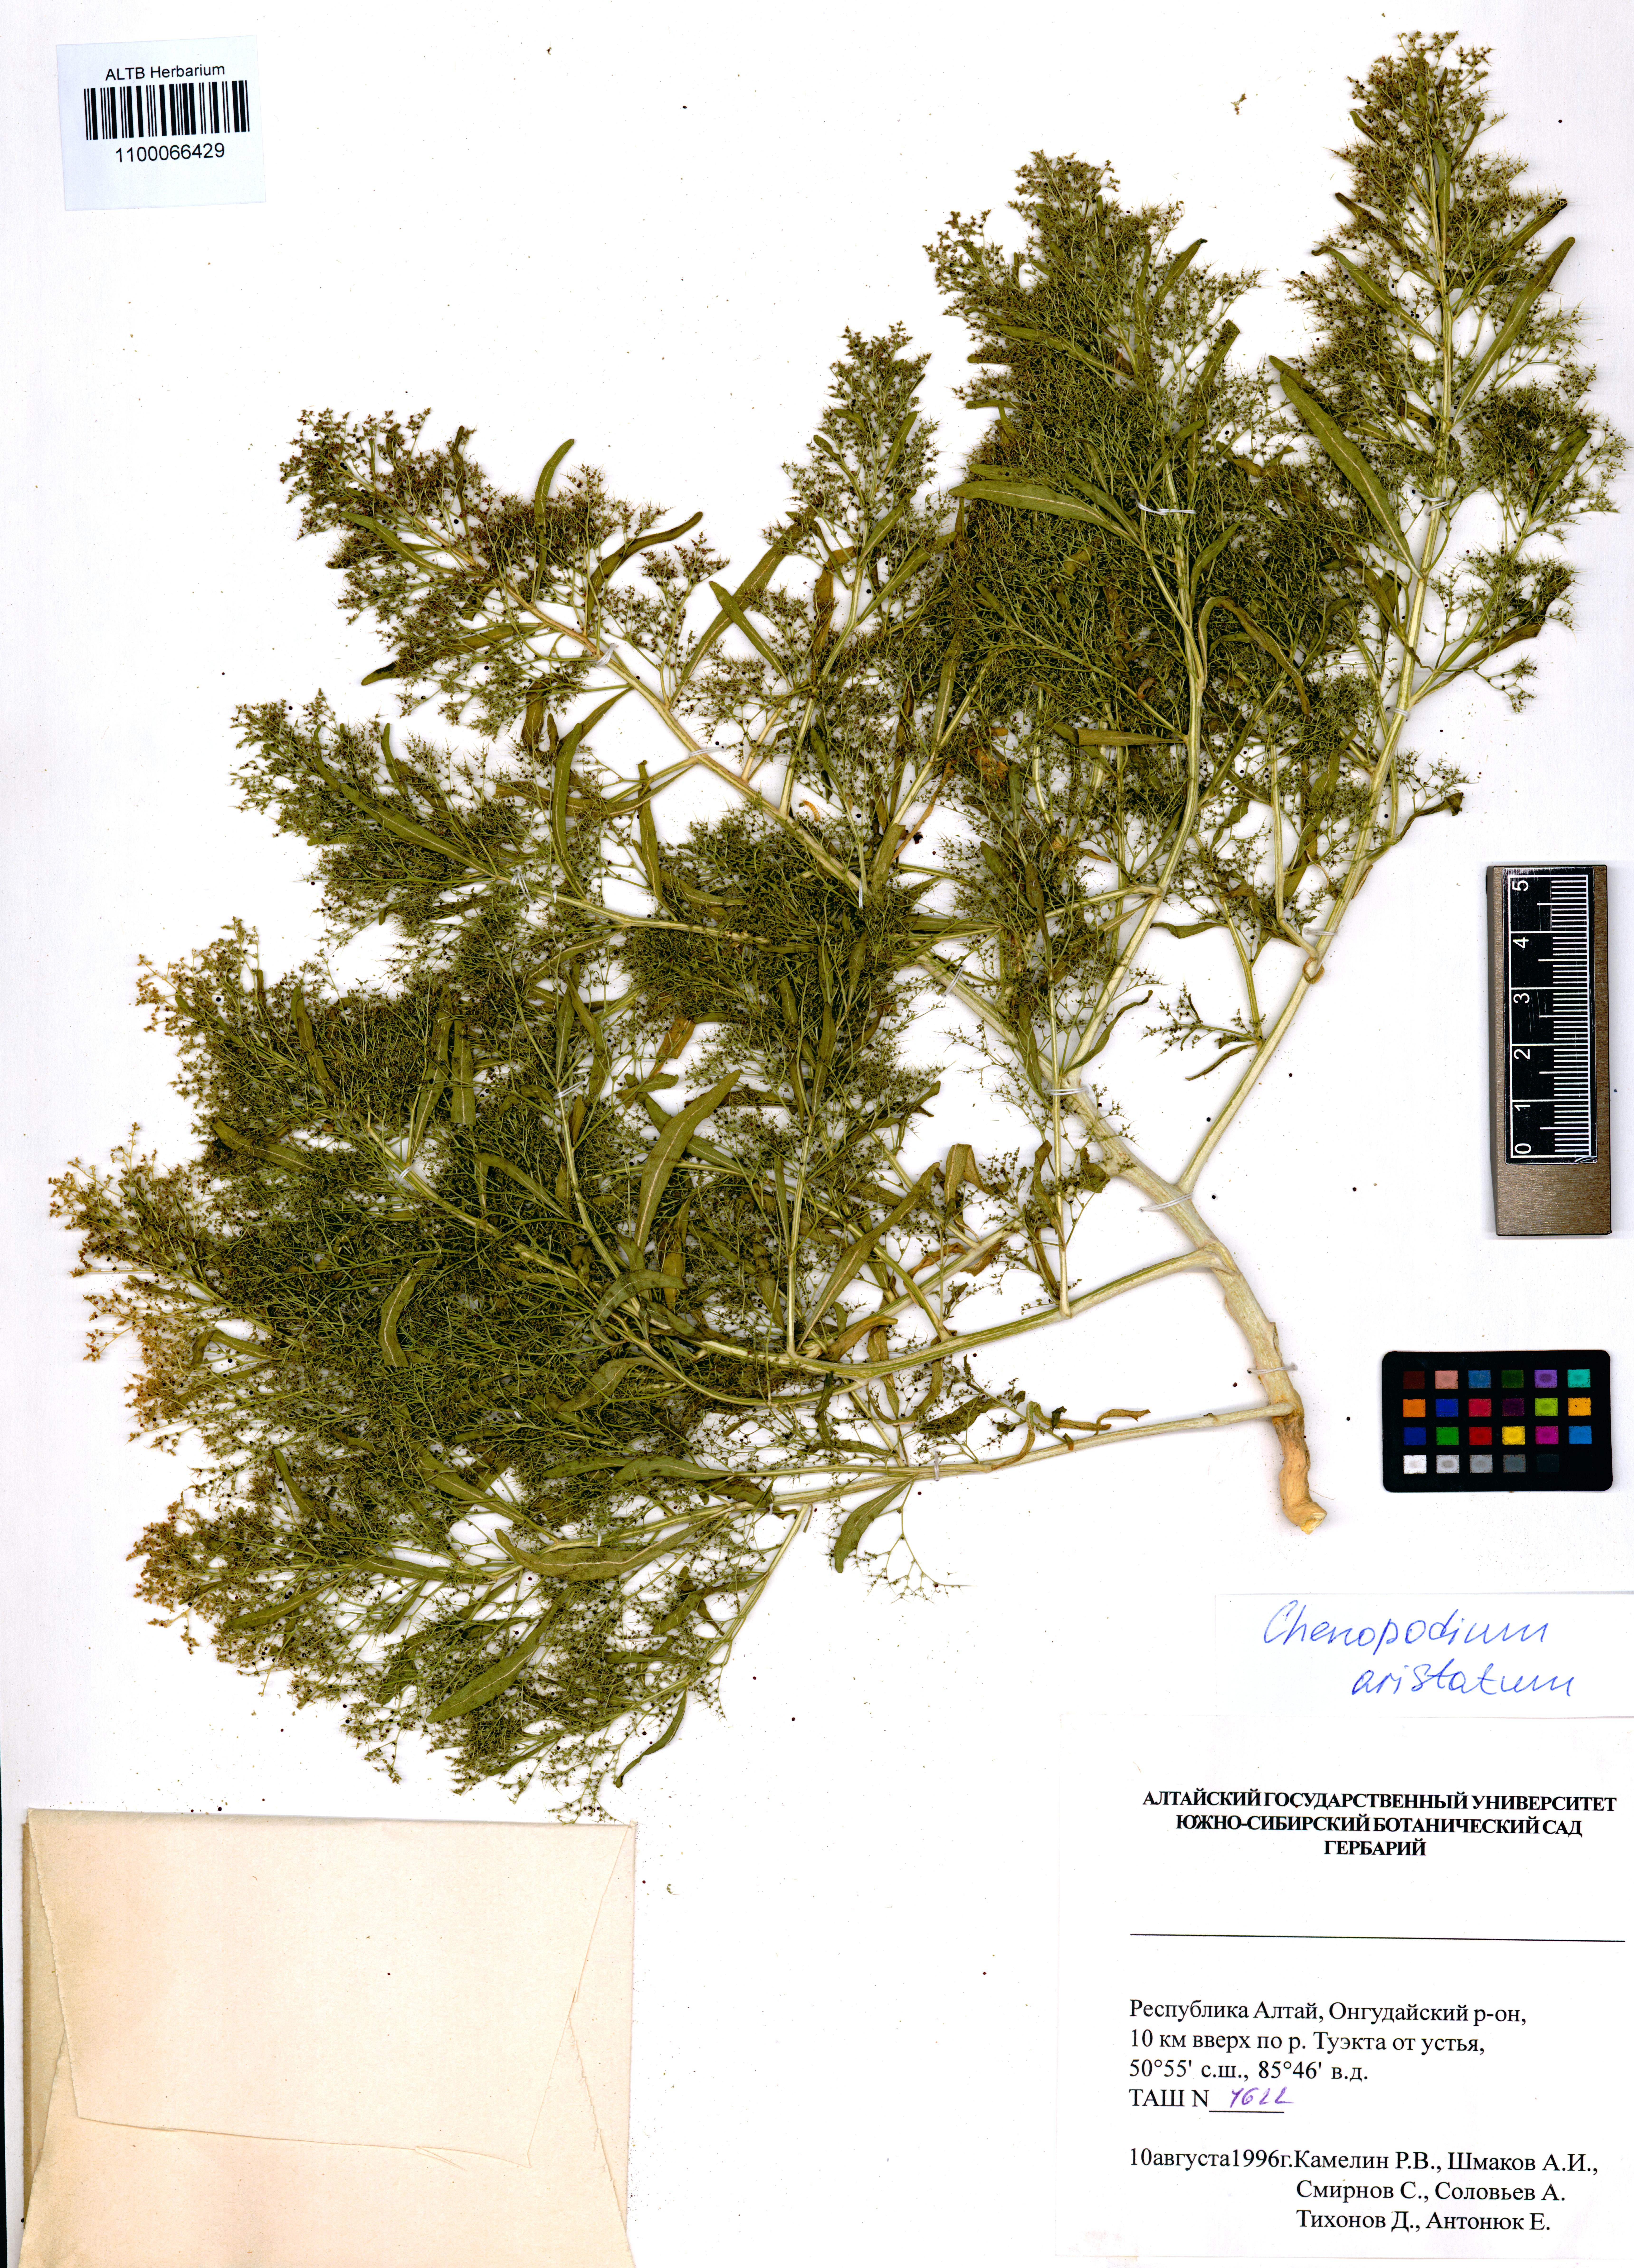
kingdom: Plantae
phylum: Tracheophyta
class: Magnoliopsida
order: Caryophyllales
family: Amaranthaceae
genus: Teloxys
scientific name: Teloxys aristata
